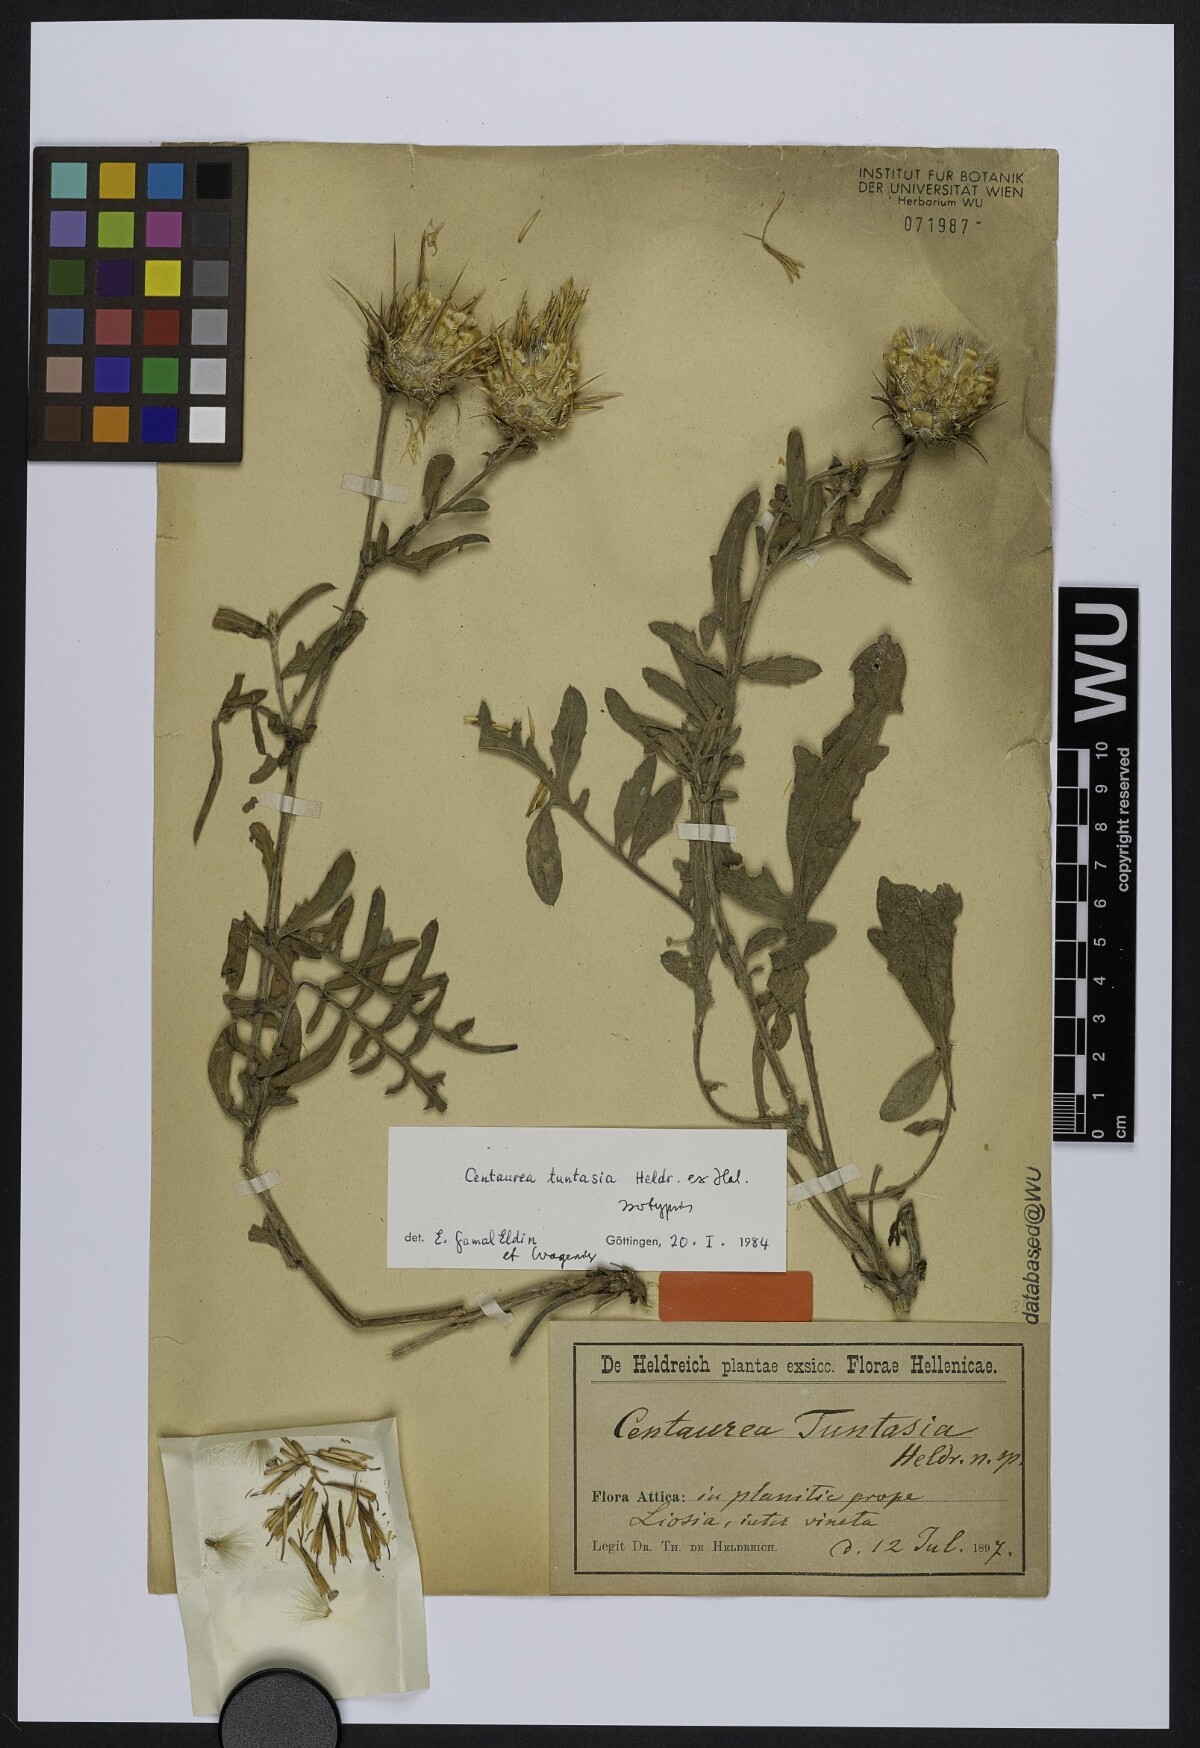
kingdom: Plantae
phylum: Tracheophyta
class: Magnoliopsida
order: Asterales
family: Asteraceae
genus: Centaurea
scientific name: Centaurea tuntasia
